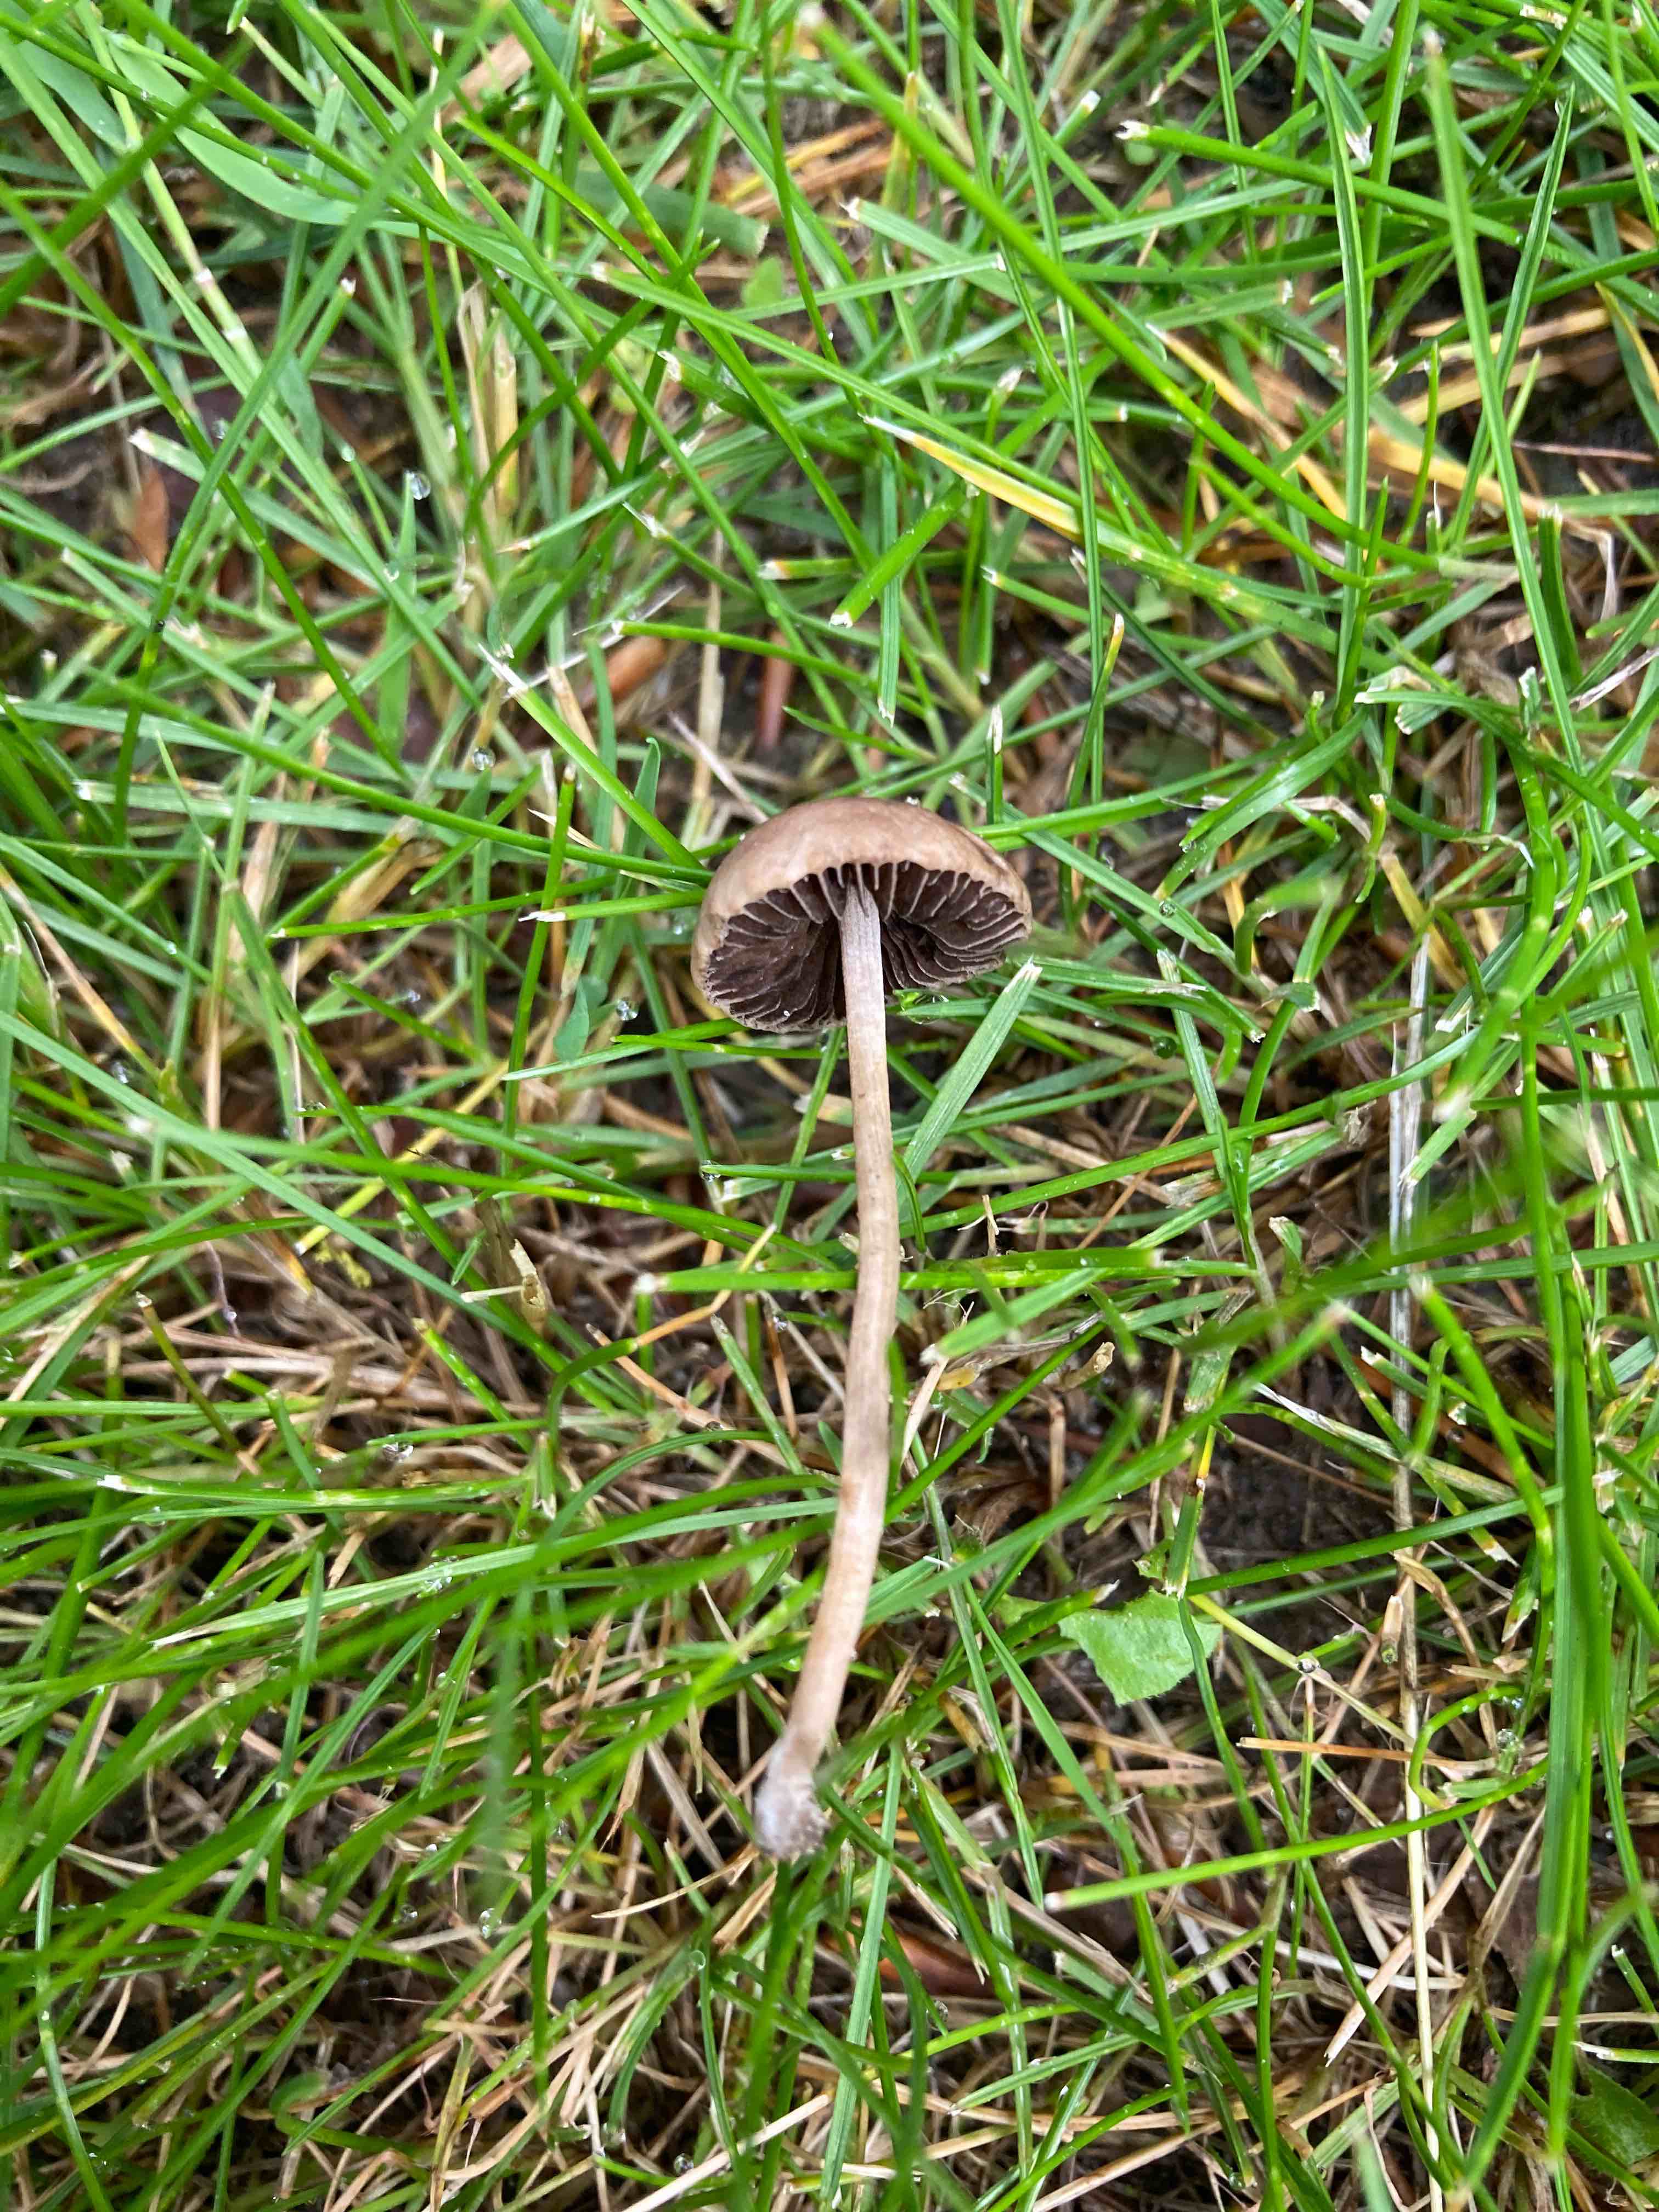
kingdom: Fungi
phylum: Basidiomycota
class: Agaricomycetes
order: Agaricales
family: Bolbitiaceae
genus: Panaeolina
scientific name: Panaeolina foenisecii
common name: høslætsvamp
